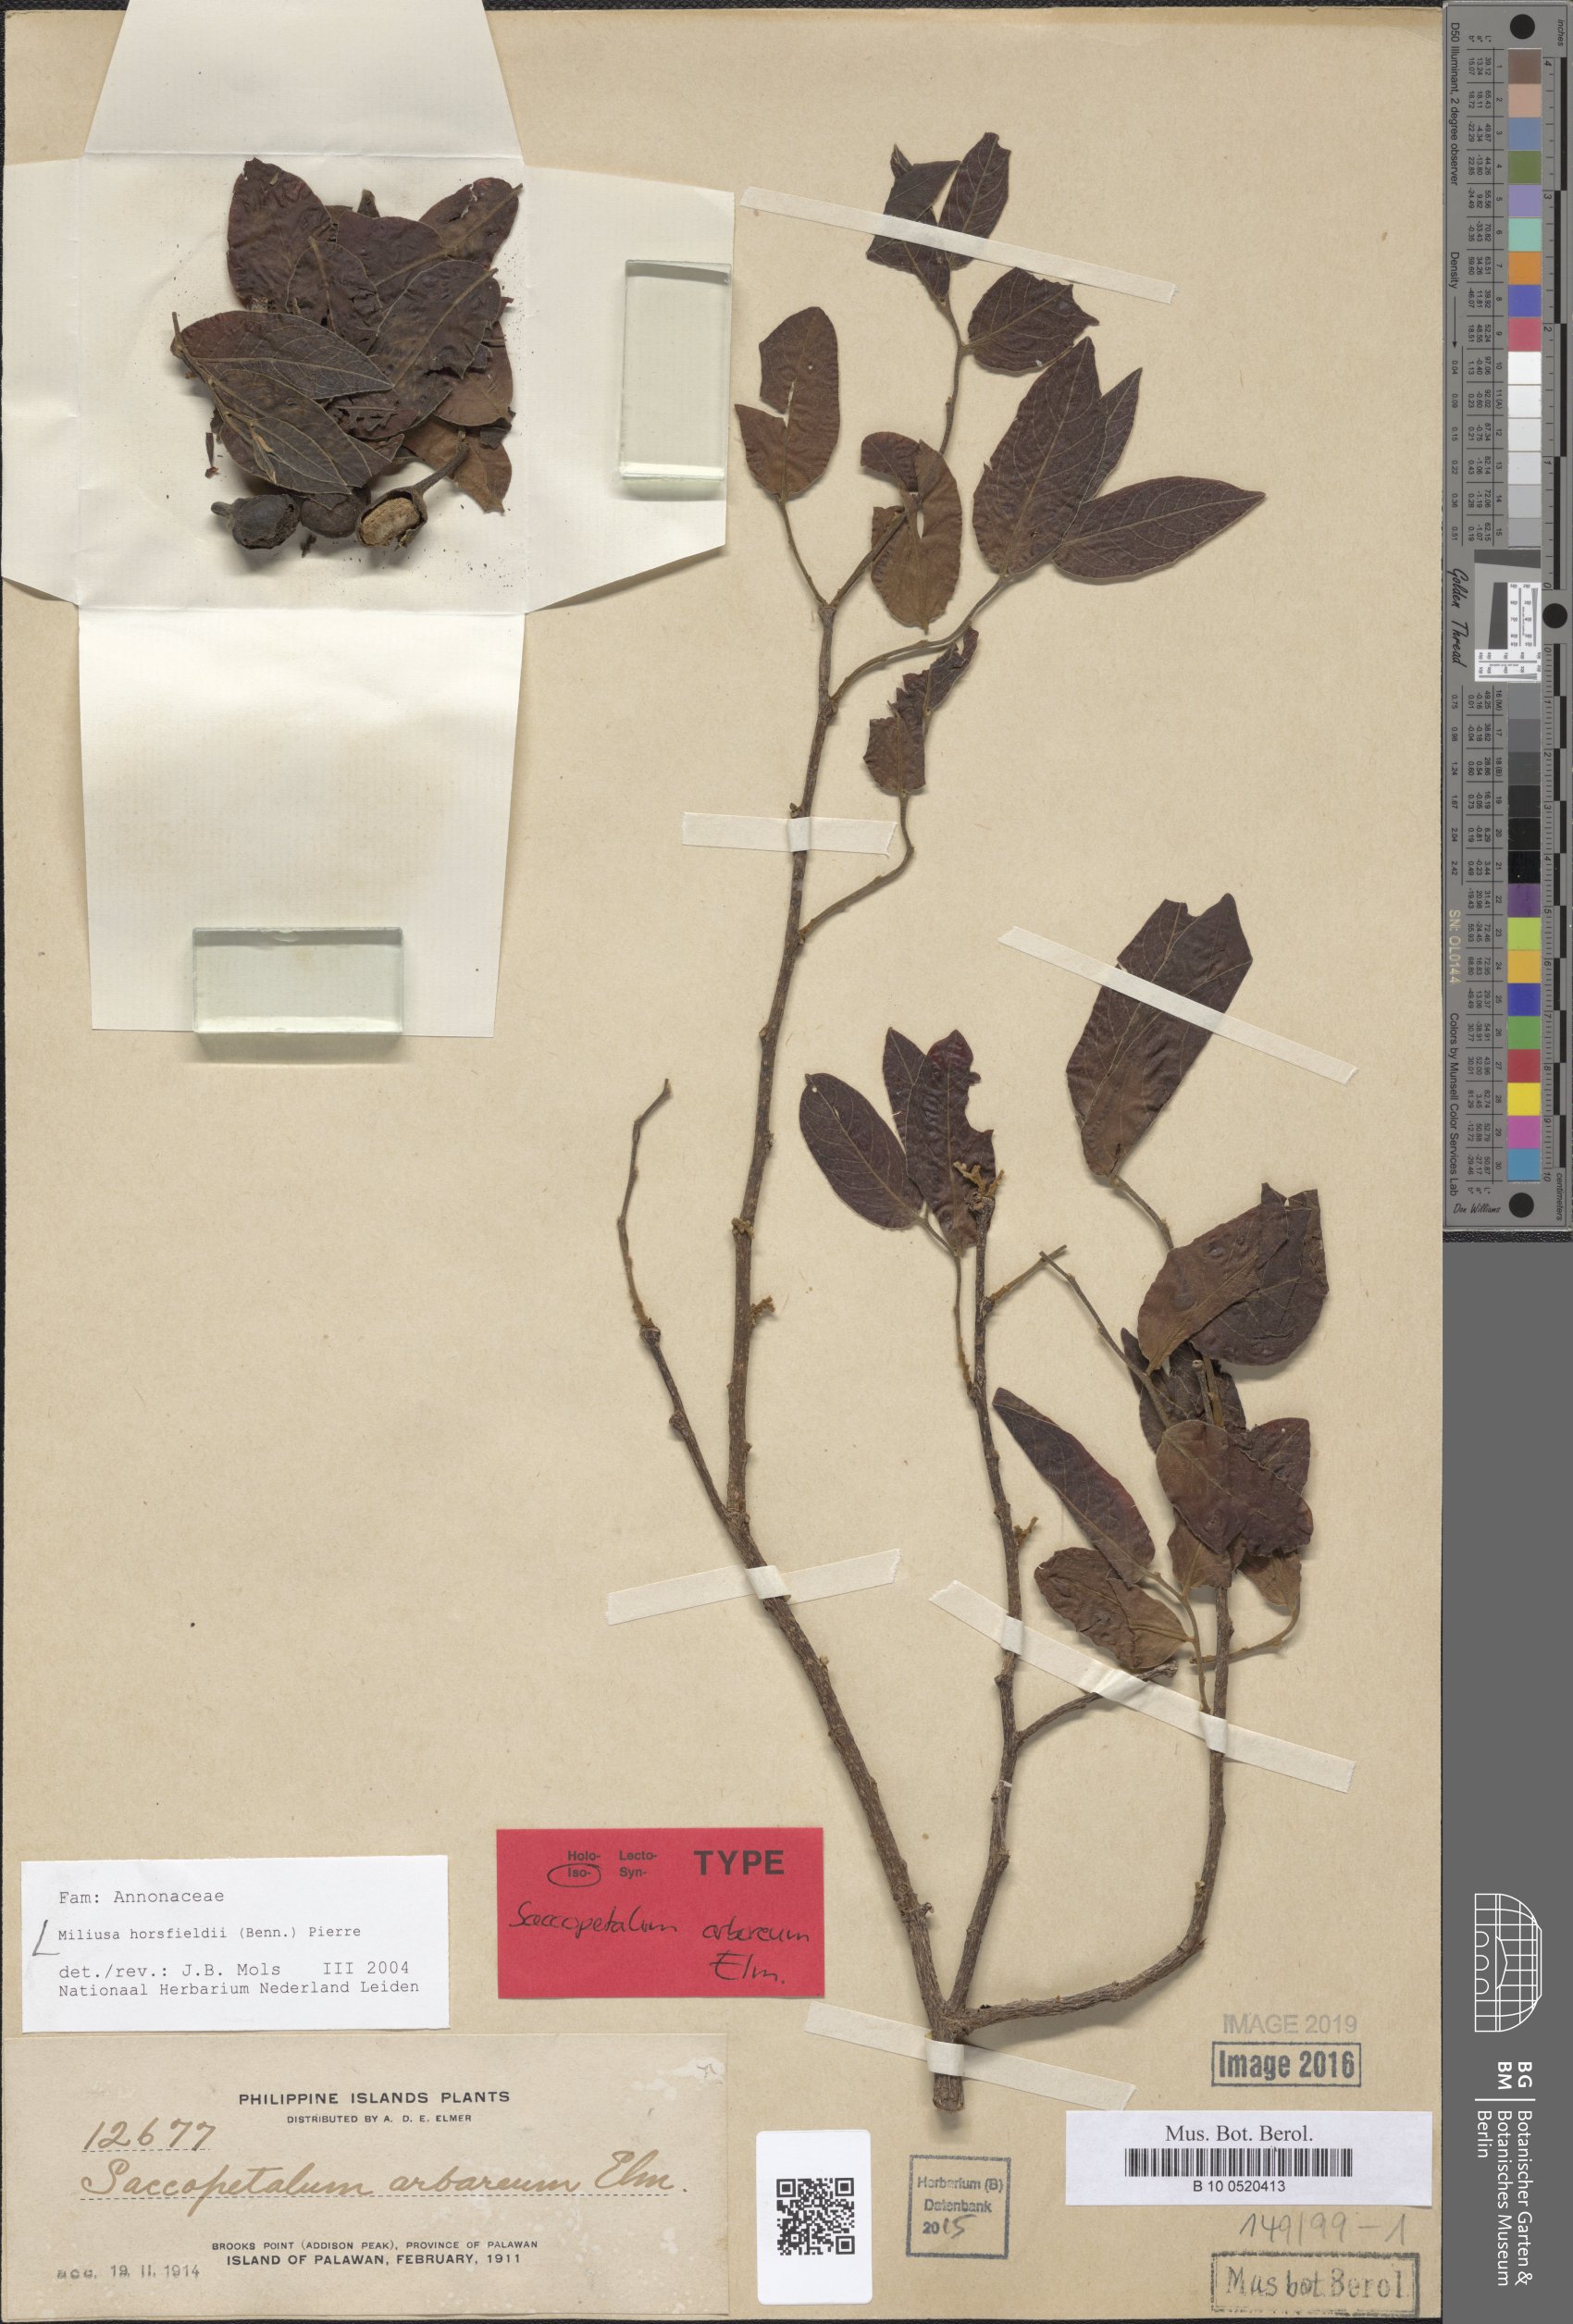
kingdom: Plantae
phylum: Tracheophyta
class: Magnoliopsida
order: Magnoliales
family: Annonaceae
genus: Miliusa
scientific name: Miliusa horsfieldii
